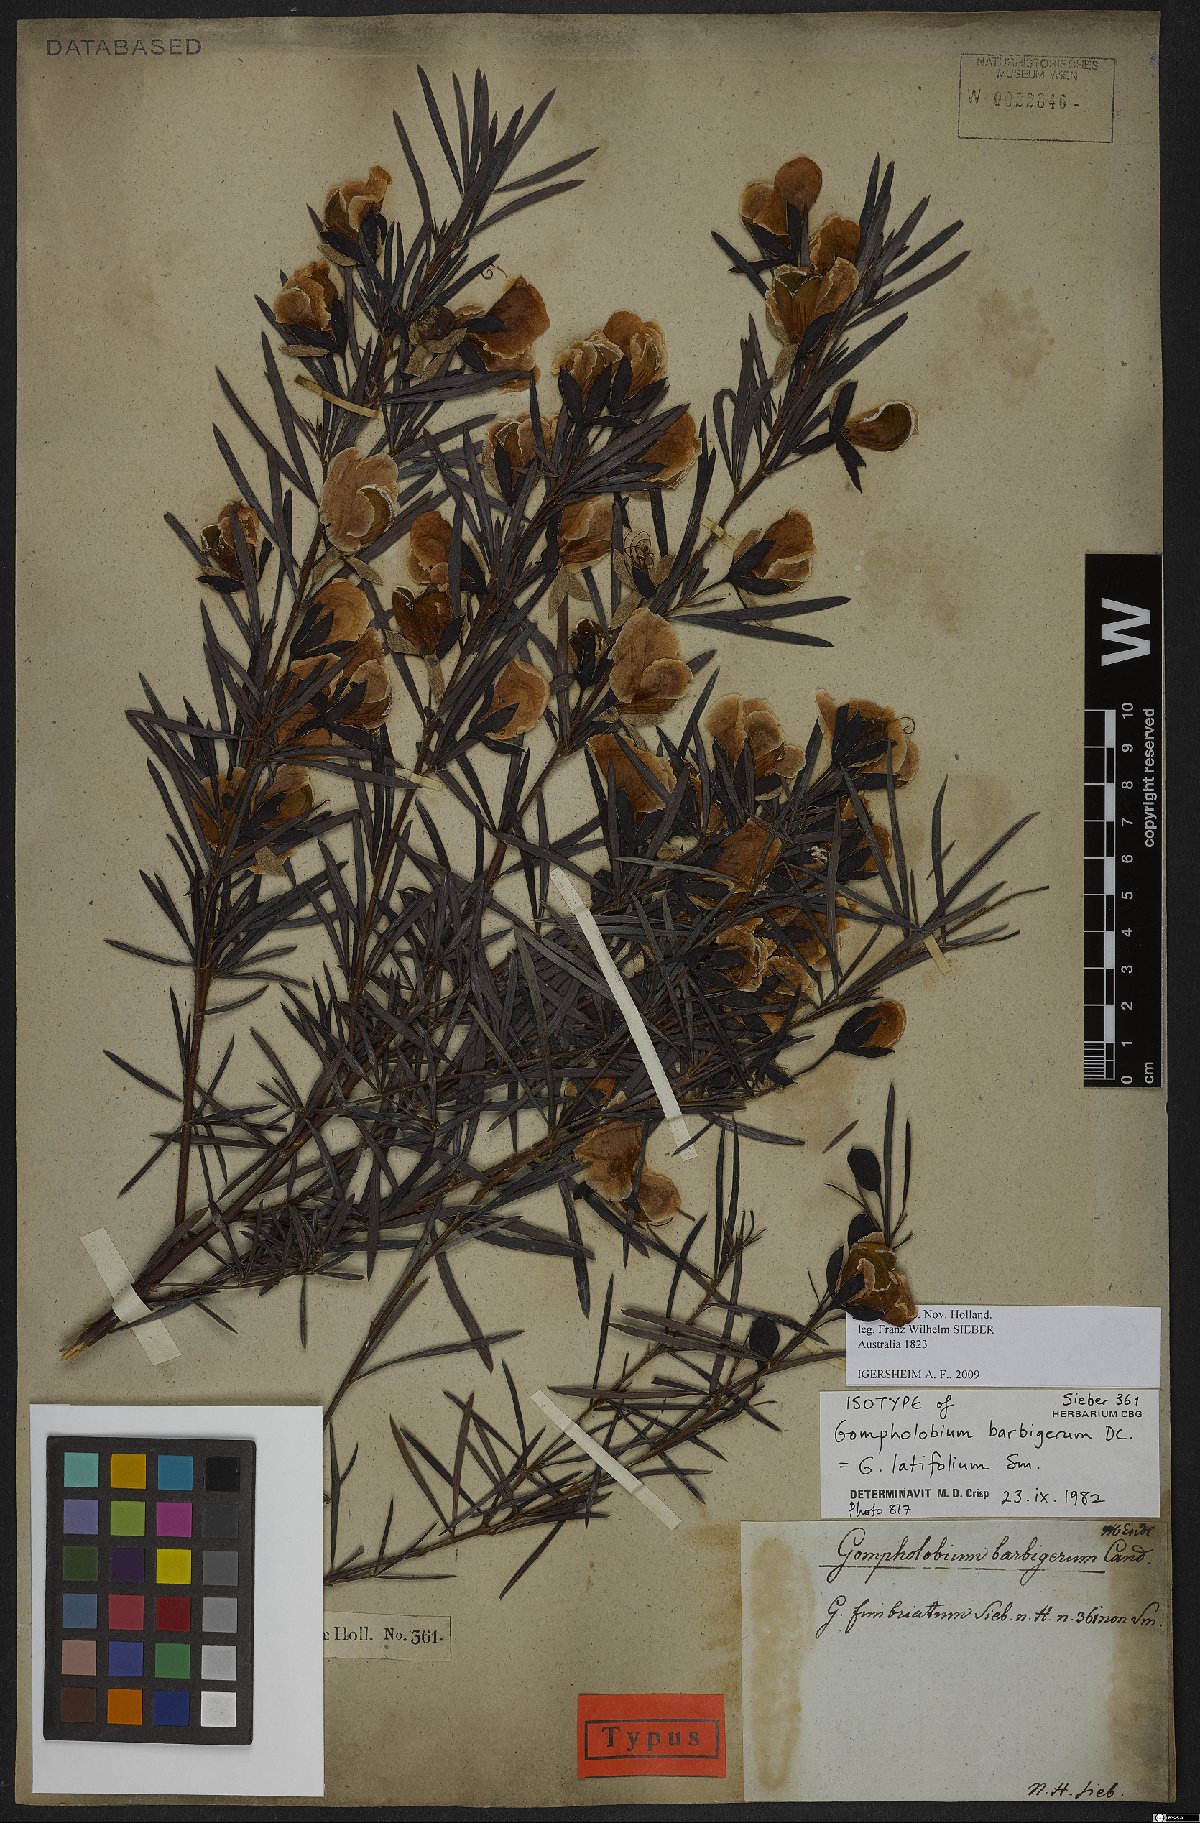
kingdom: Plantae
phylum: Tracheophyta
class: Magnoliopsida
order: Fabales
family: Fabaceae
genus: Gompholobium
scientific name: Gompholobium latifolium
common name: Broadleaf wedge-pea
